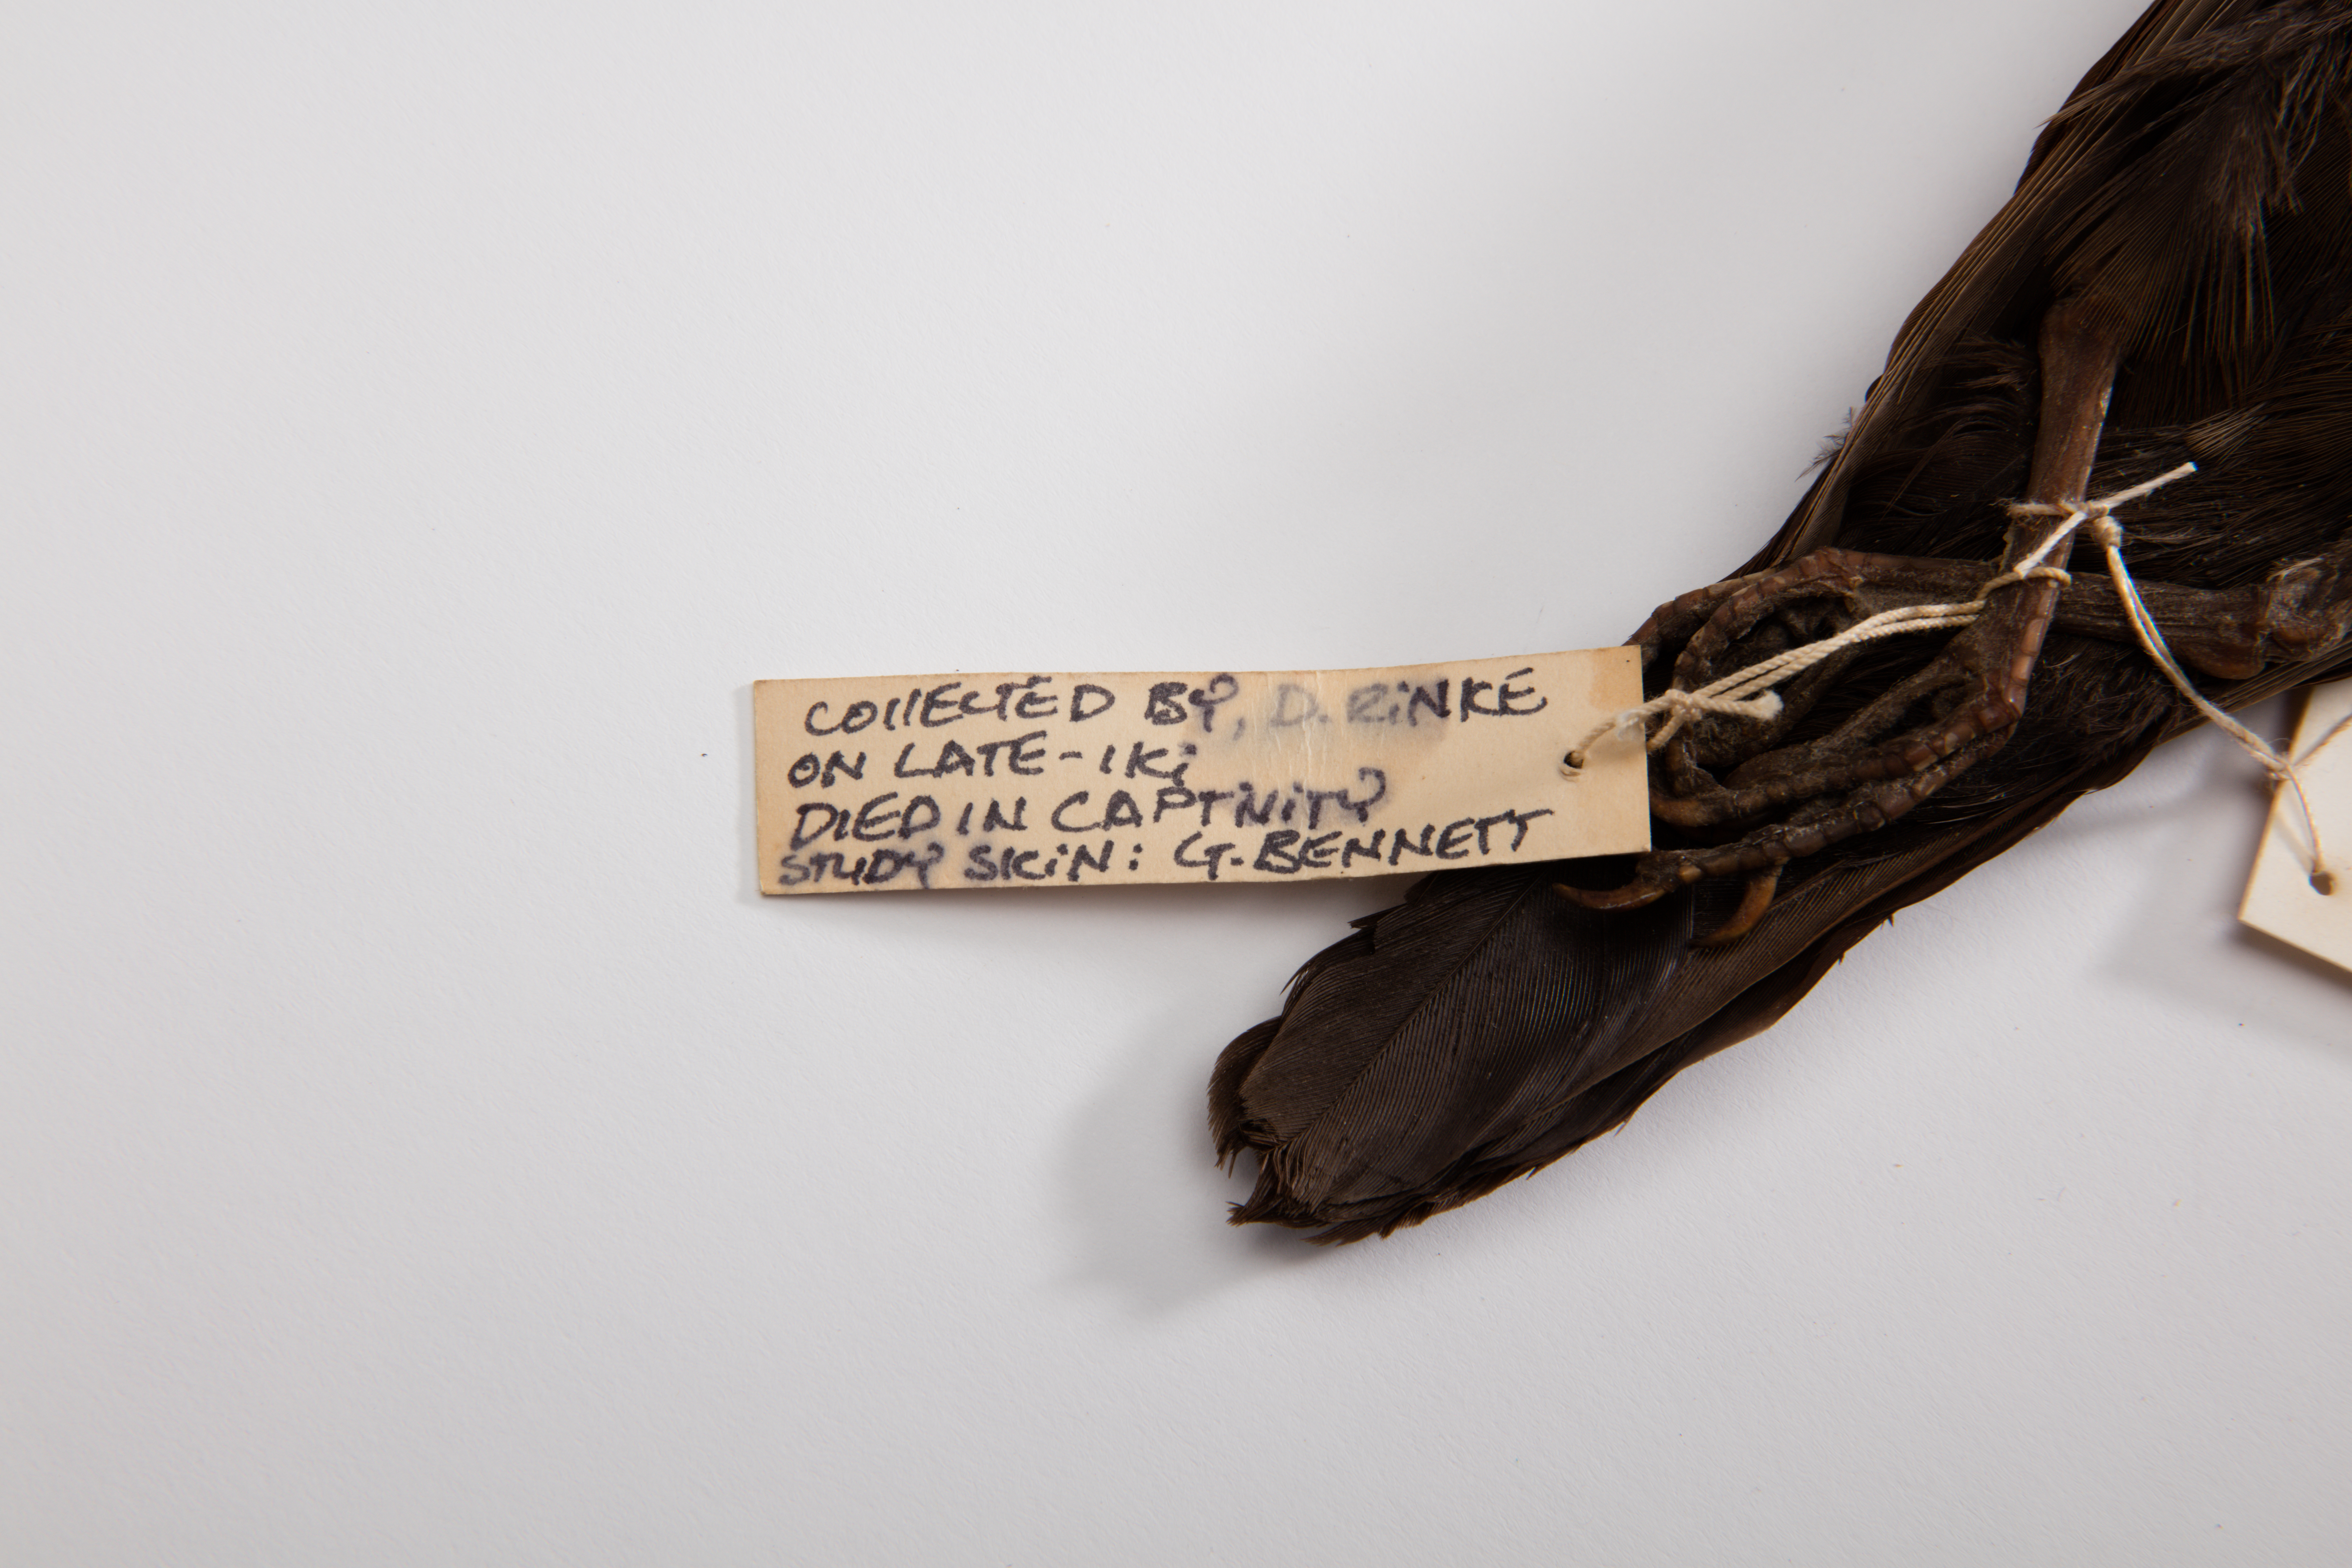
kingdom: Animalia
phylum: Chordata
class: Aves
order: Columbiformes
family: Columbidae
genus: Pampusana
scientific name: Pampusana stairi
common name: Tongan ground dove
